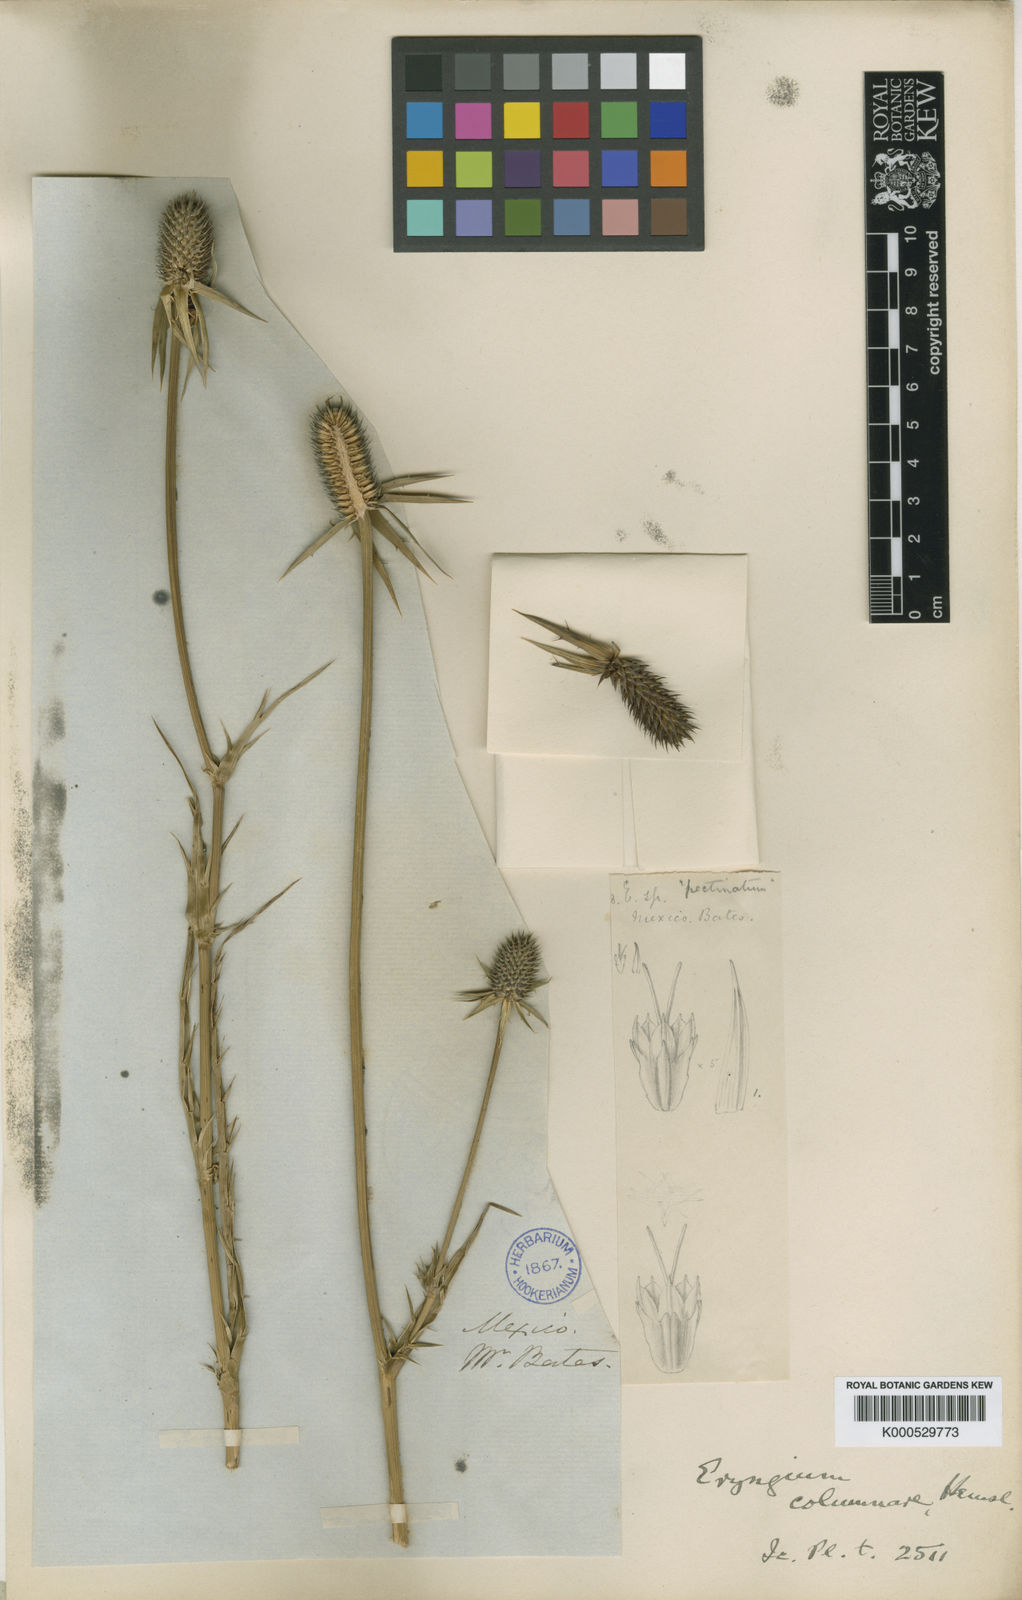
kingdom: Plantae
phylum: Tracheophyta
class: Magnoliopsida
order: Apiales
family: Apiaceae
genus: Eryngium
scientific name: Eryngium columnare
